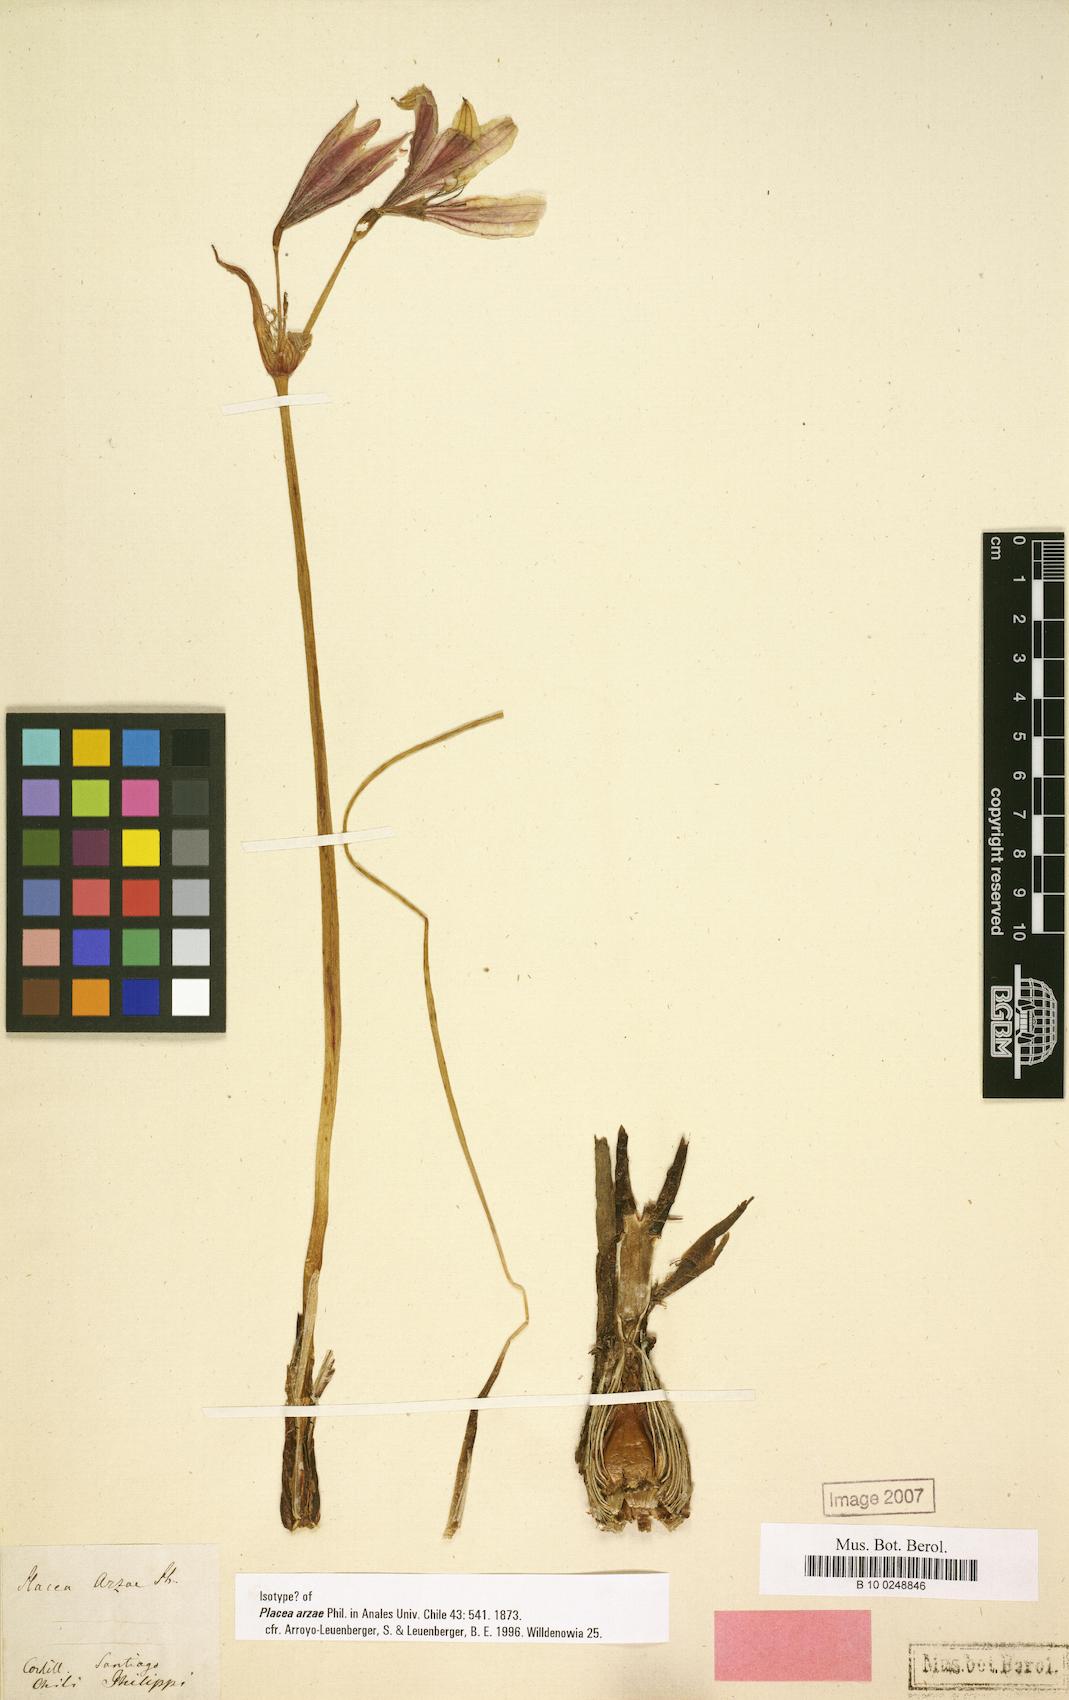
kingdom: Plantae
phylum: Tracheophyta
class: Liliopsida
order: Asparagales
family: Amaryllidaceae
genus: Phycella
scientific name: Phycella arzae
